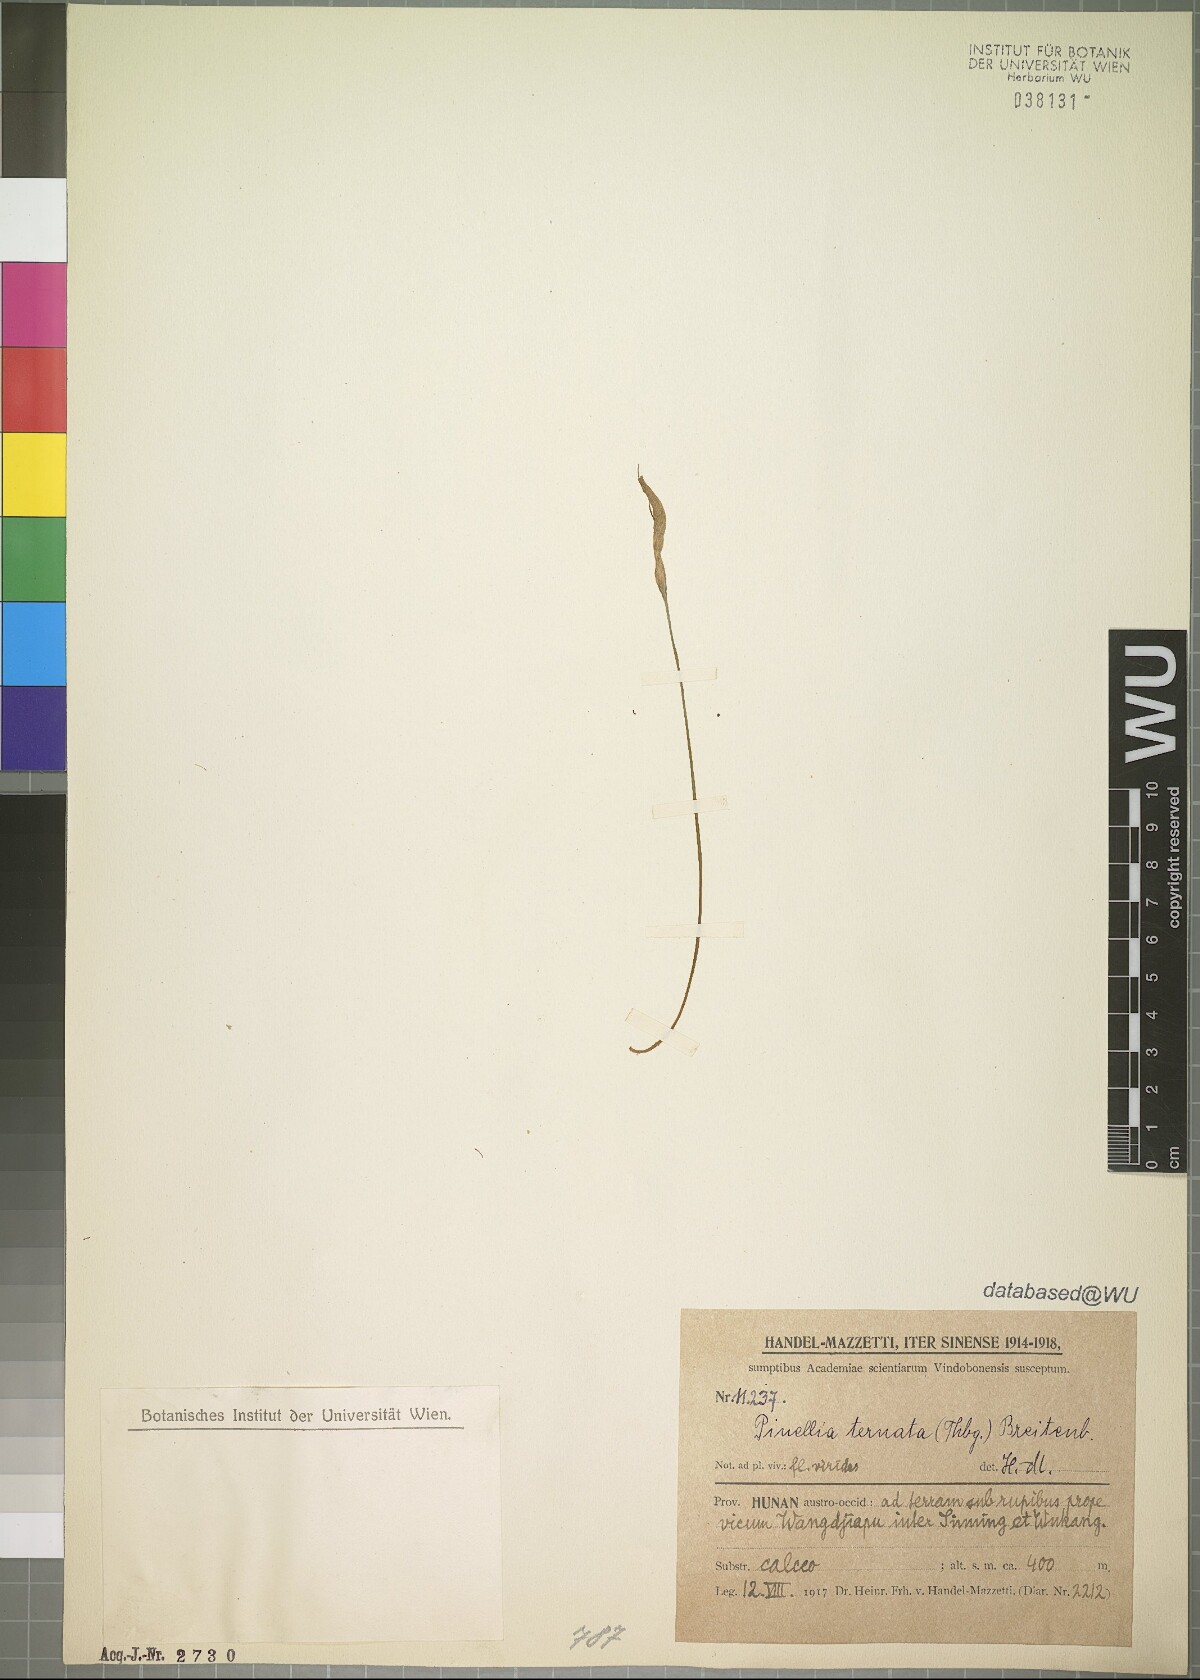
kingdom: Plantae
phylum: Tracheophyta
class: Liliopsida
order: Alismatales
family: Araceae
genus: Pinellia
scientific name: Pinellia ternata
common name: Pinellia
